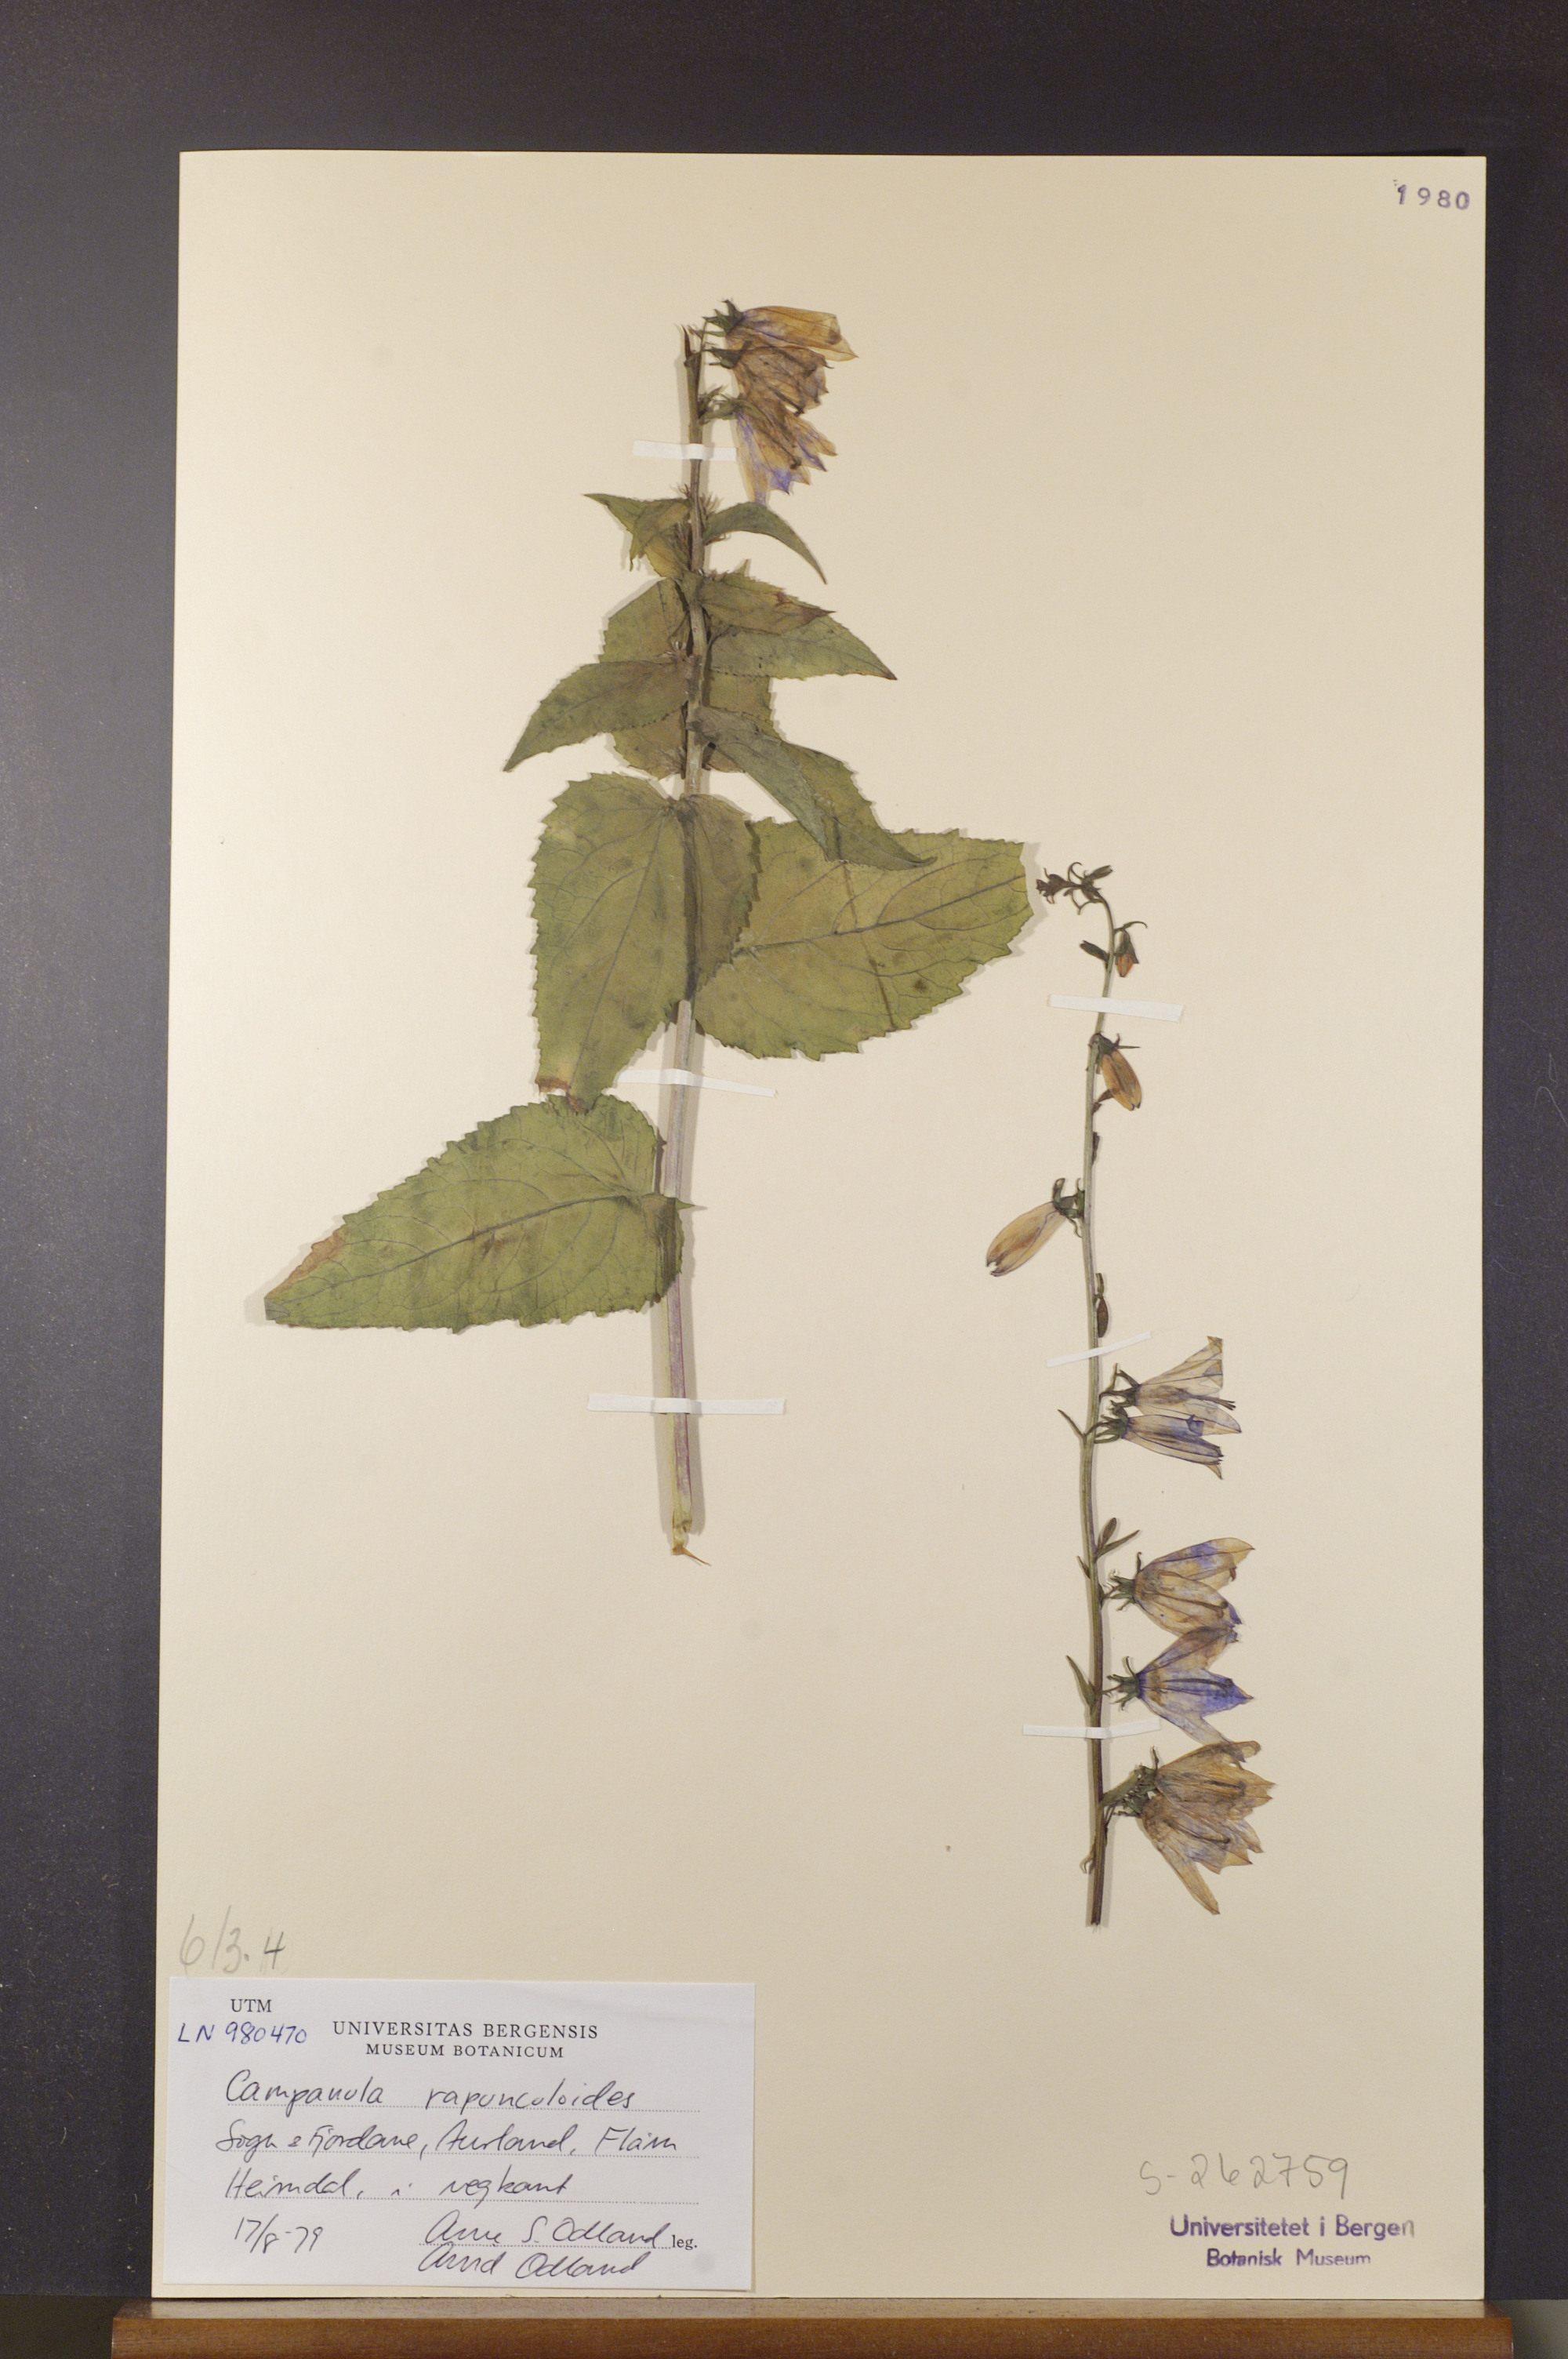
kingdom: Plantae
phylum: Tracheophyta
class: Magnoliopsida
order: Asterales
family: Campanulaceae
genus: Campanula
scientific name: Campanula rapunculoides
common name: Creeping bellflower
